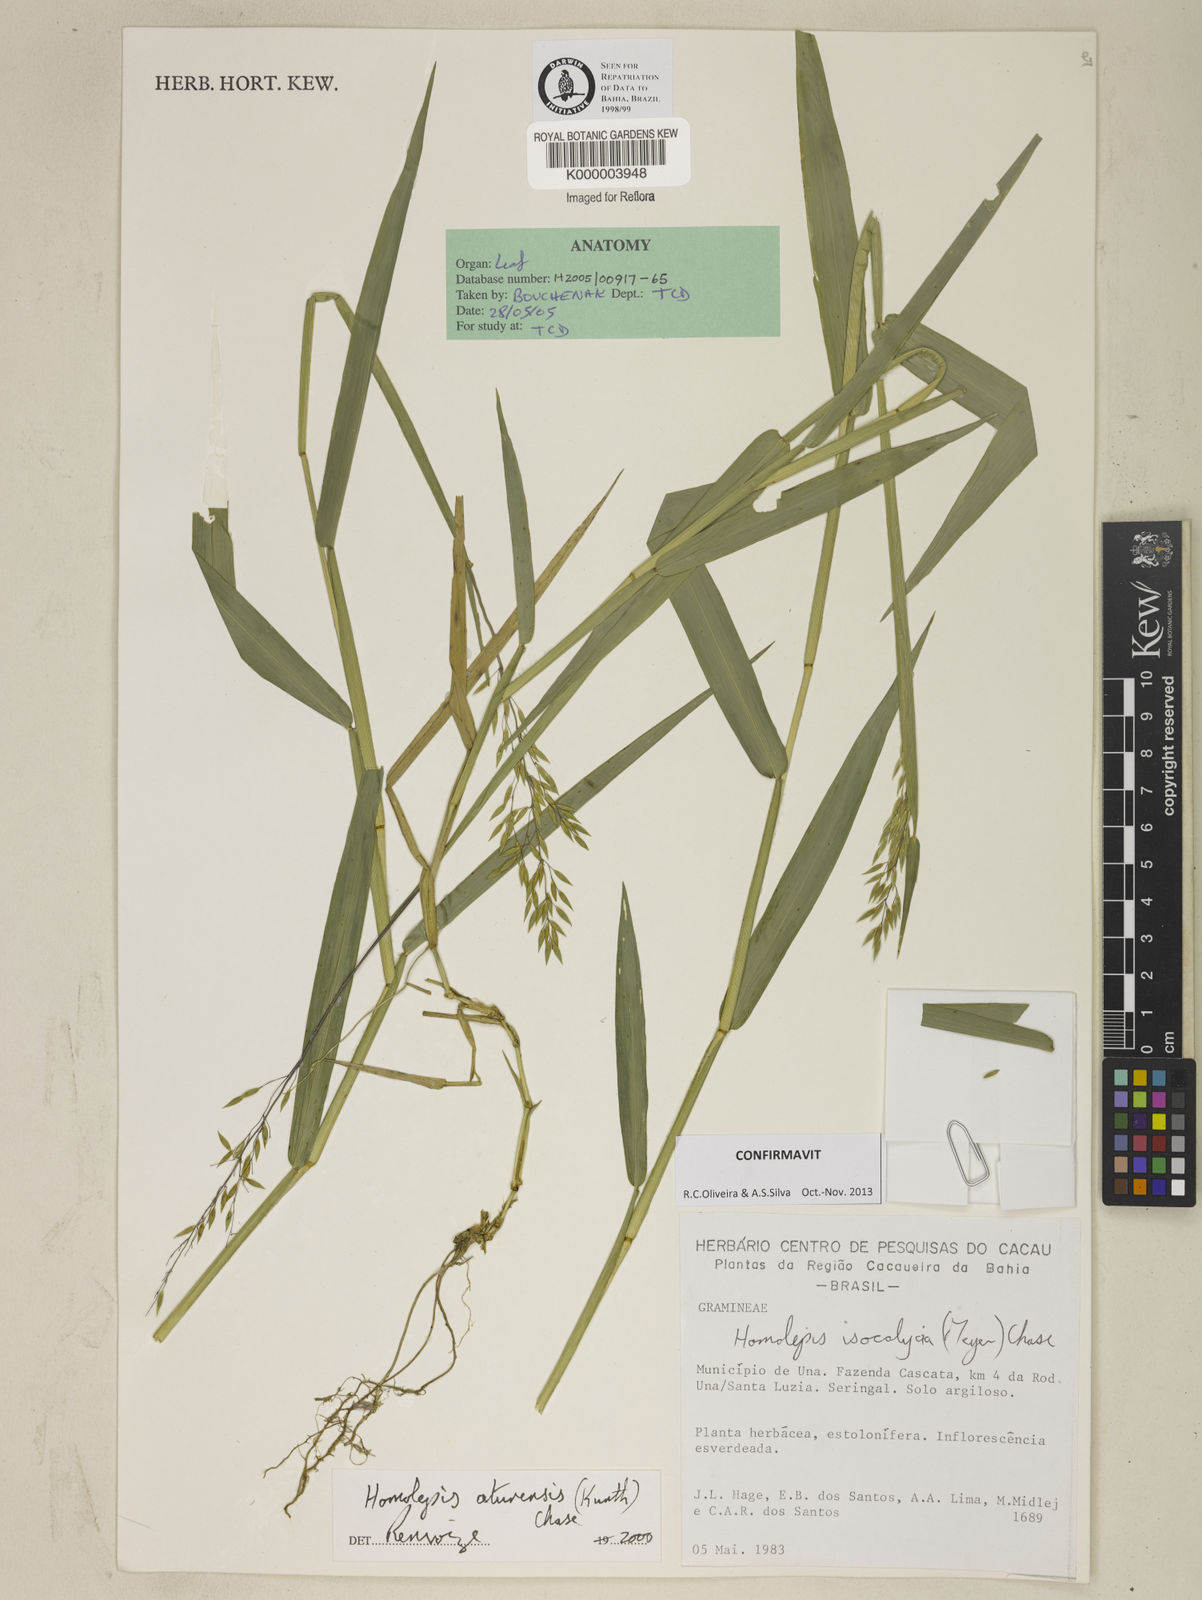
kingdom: Plantae
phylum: Tracheophyta
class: Liliopsida
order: Poales
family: Poaceae
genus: Homolepis
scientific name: Homolepis
